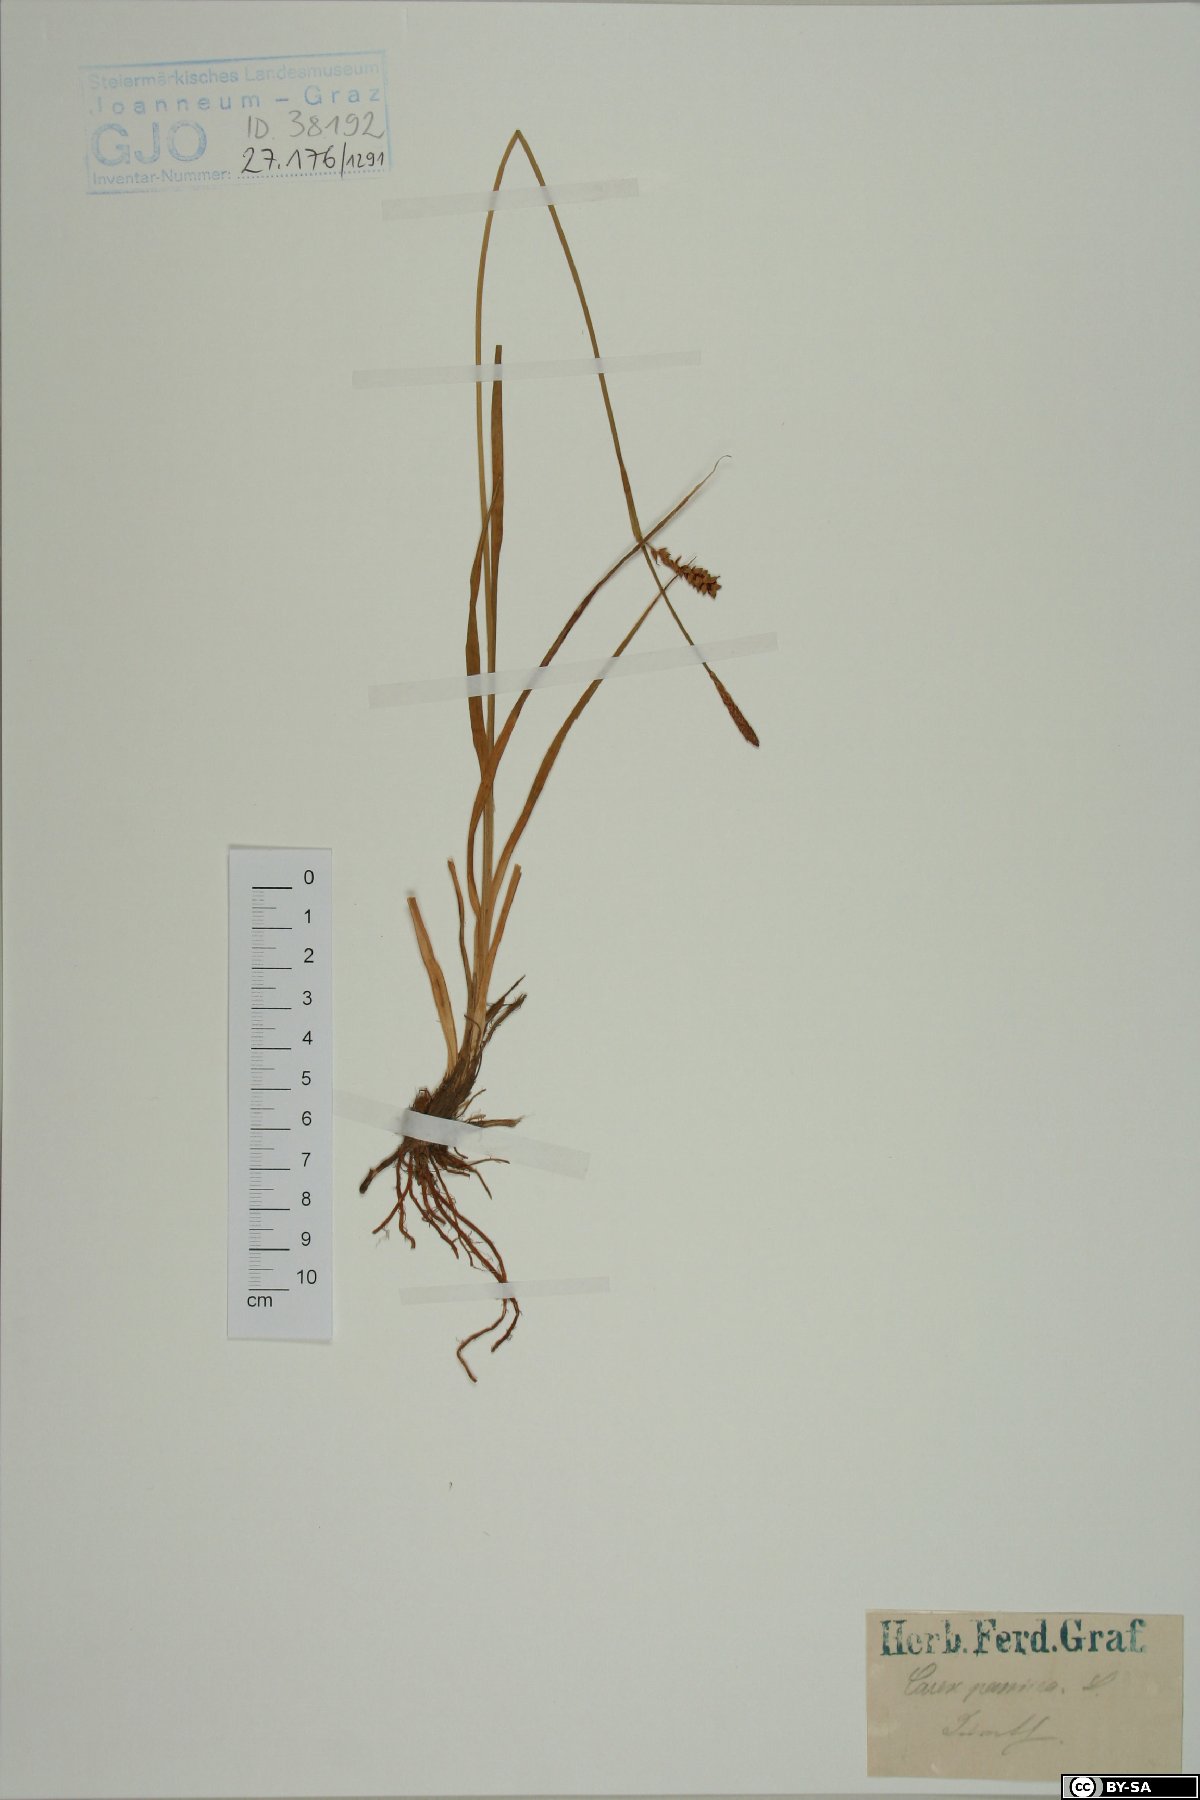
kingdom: Plantae
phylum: Tracheophyta
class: Liliopsida
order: Poales
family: Cyperaceae
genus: Carex
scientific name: Carex panicea
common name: Carnation sedge
